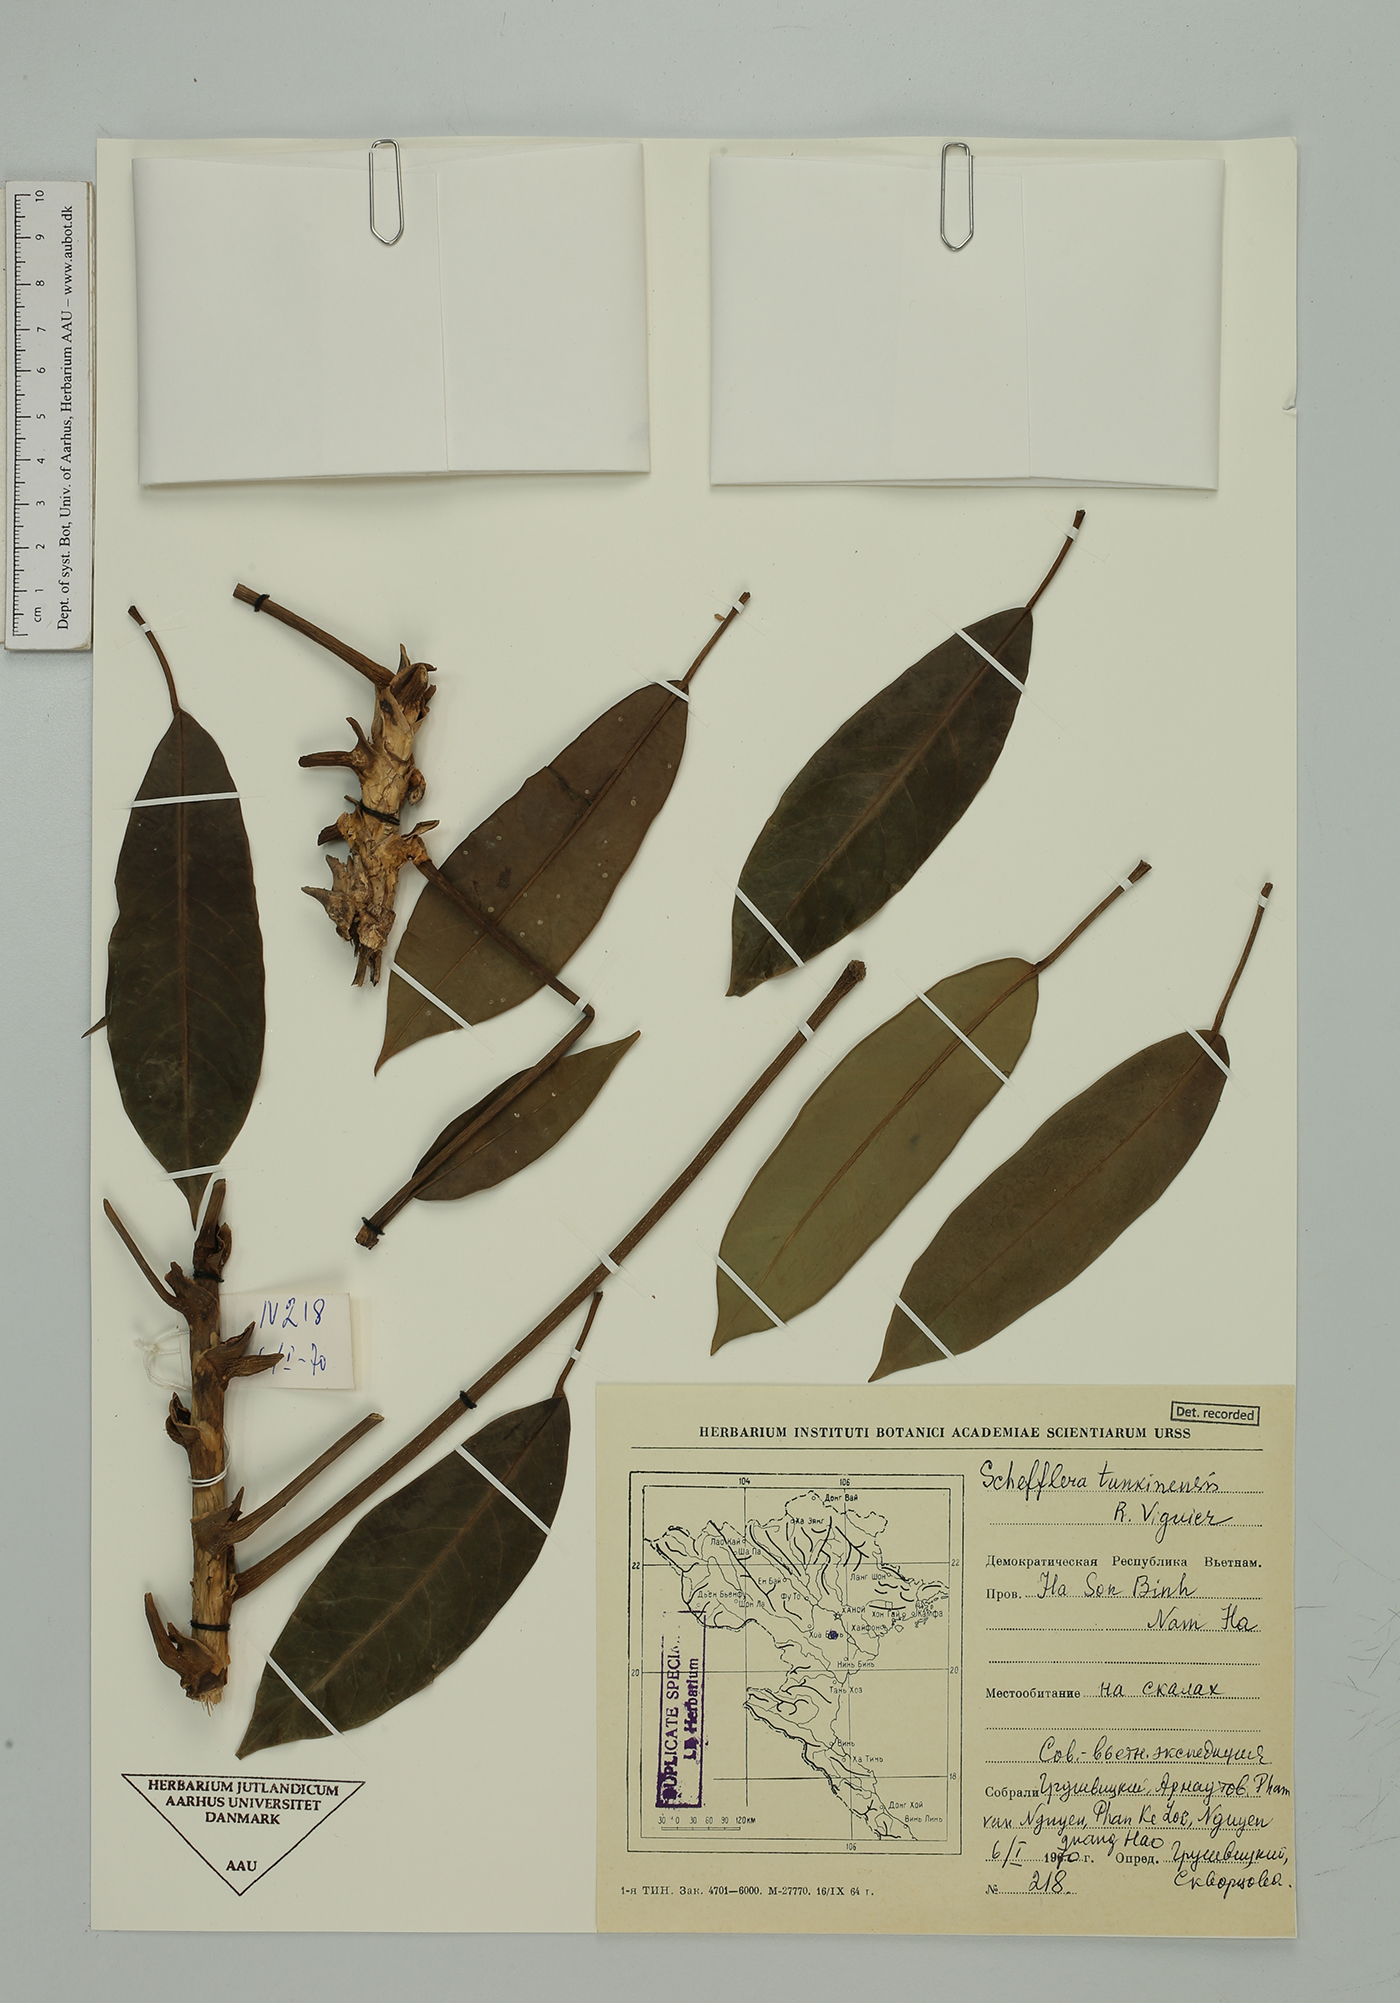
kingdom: Plantae
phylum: Tracheophyta
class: Magnoliopsida
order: Apiales
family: Araliaceae
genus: Heptapleurum
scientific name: Heptapleurum tunkinense
